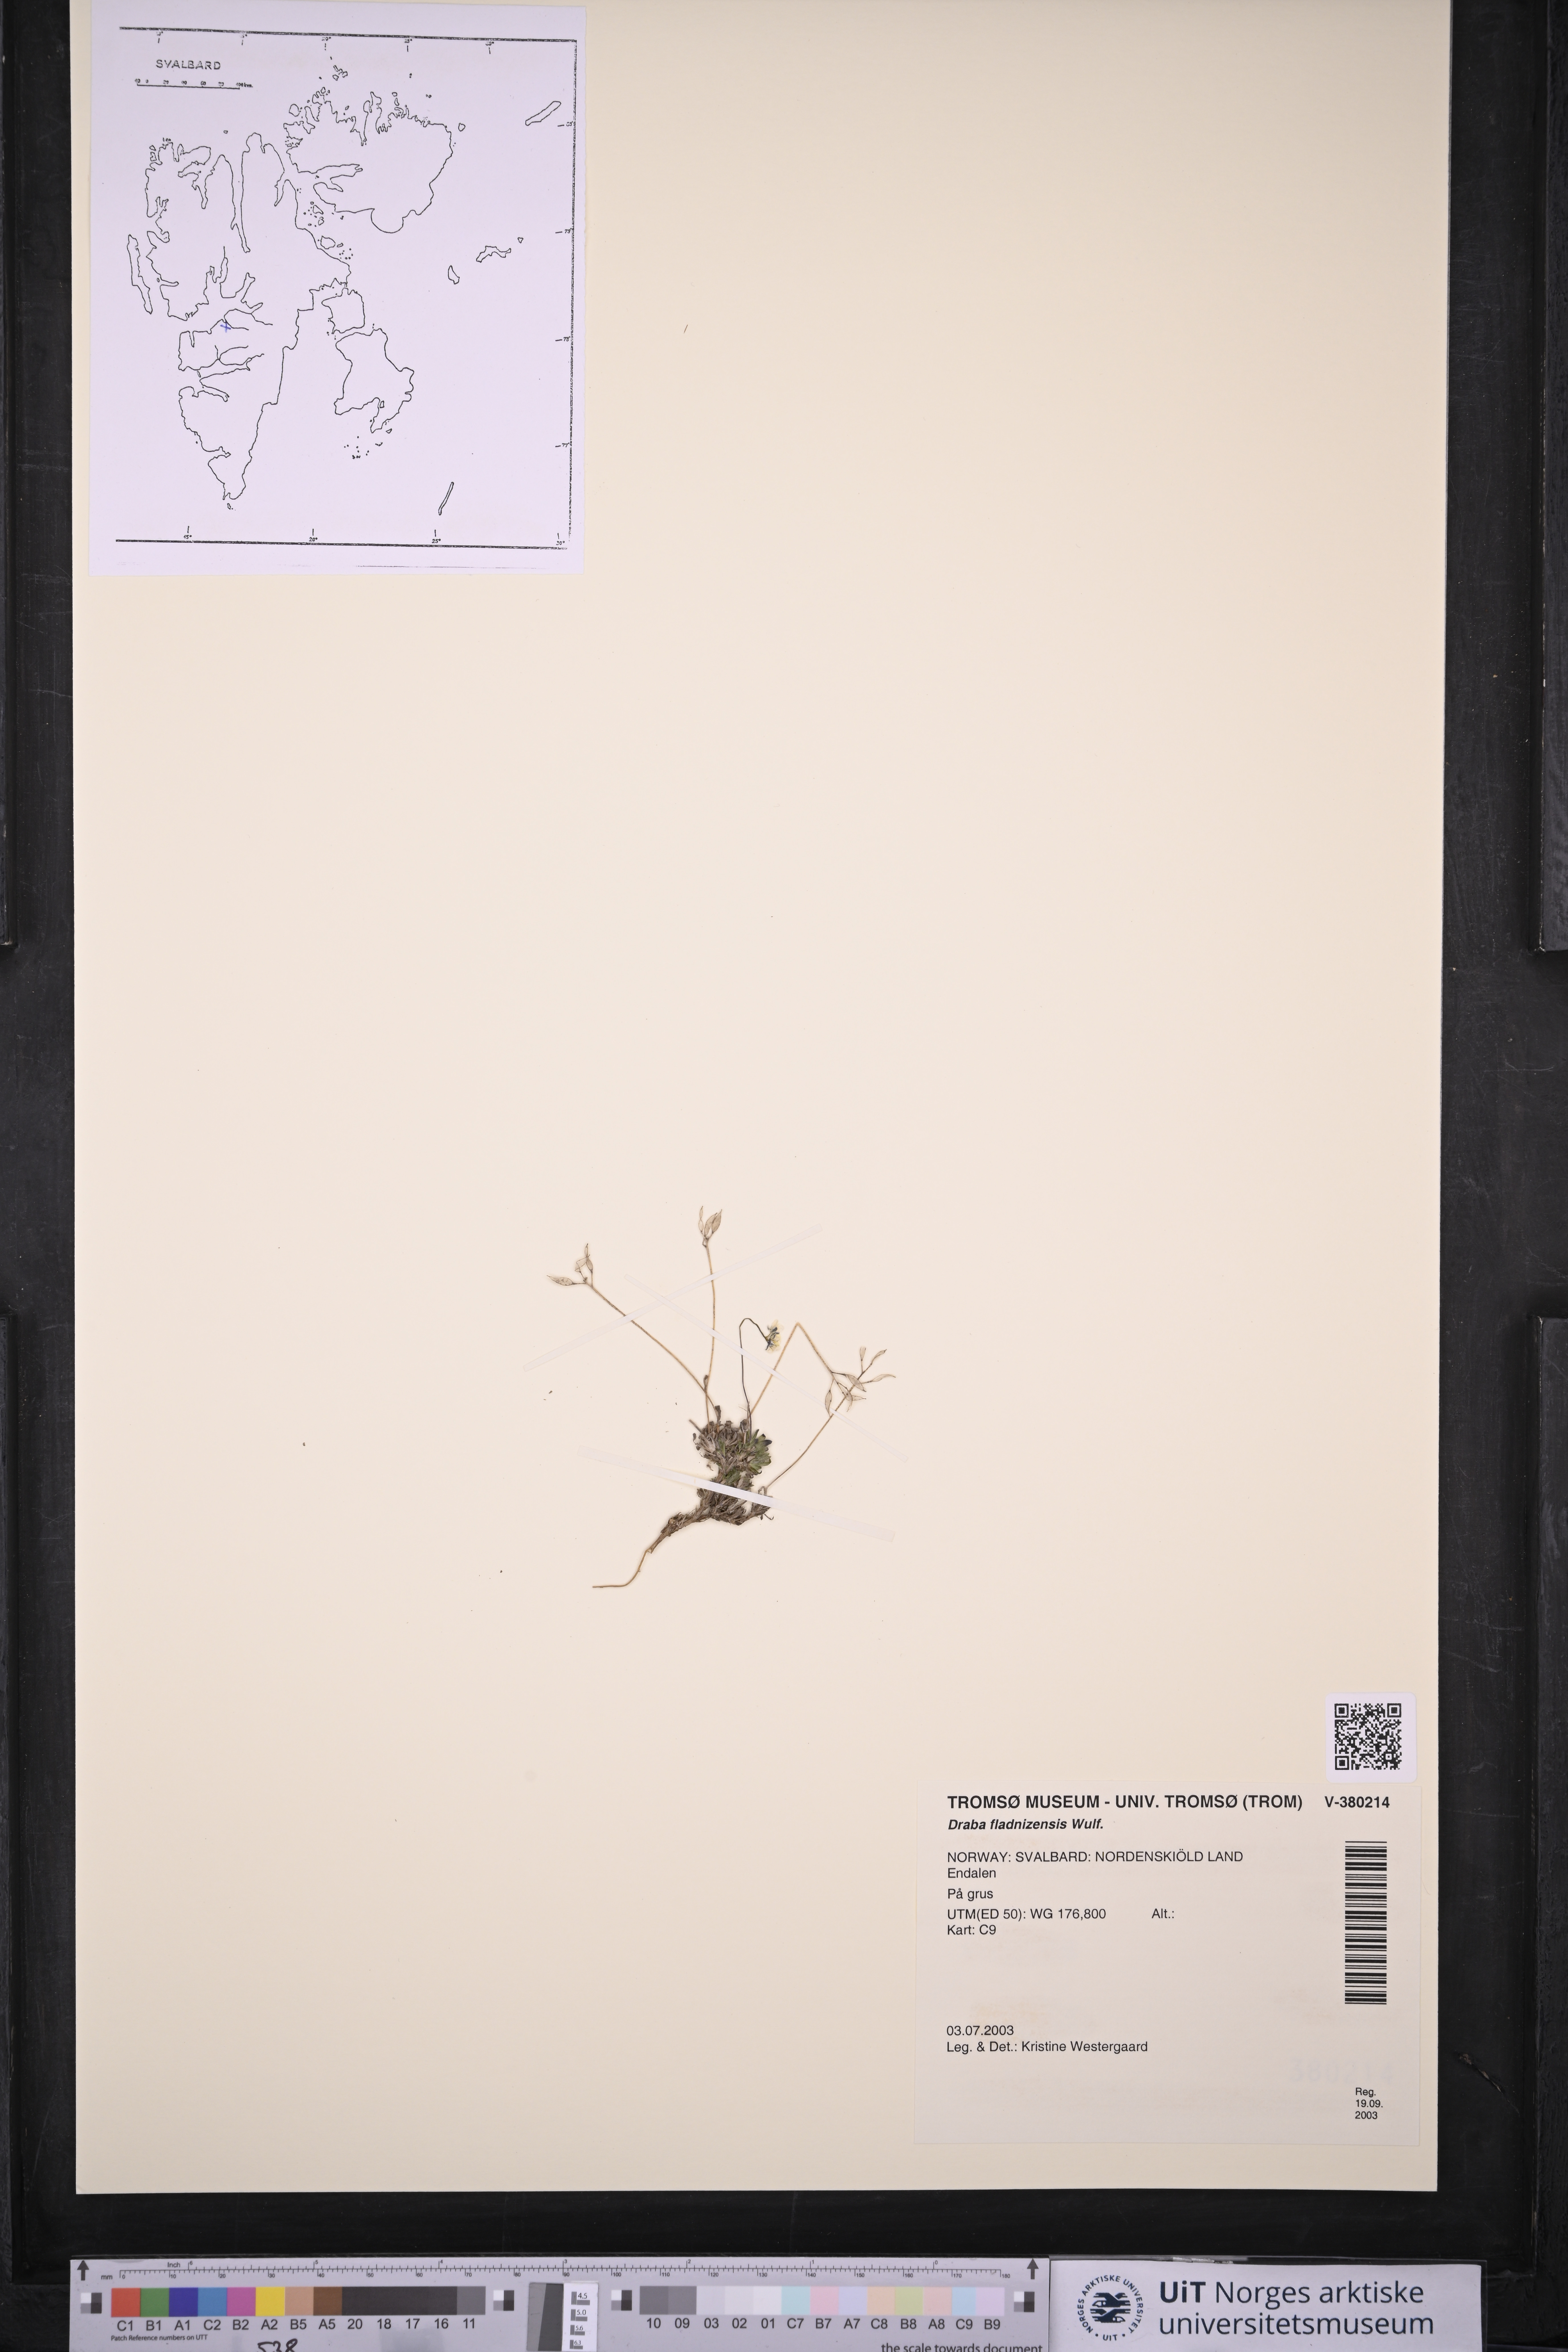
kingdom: Plantae
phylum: Tracheophyta
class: Magnoliopsida
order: Brassicales
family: Brassicaceae
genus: Draba
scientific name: Draba fladnizensis
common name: Austrian draba
